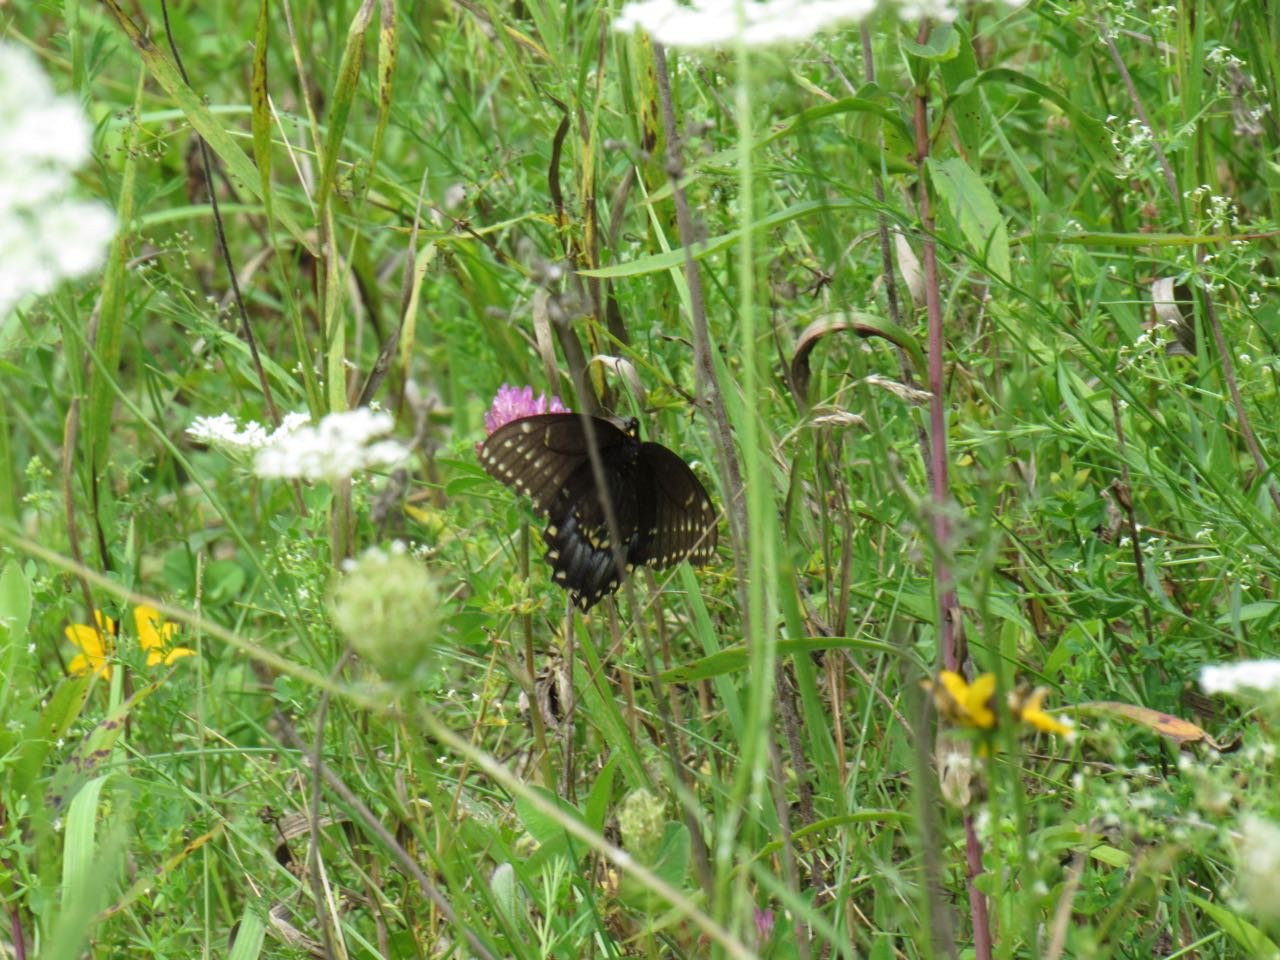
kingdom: Animalia
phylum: Arthropoda
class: Insecta
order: Lepidoptera
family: Papilionidae
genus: Papilio
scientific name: Papilio polyxenes
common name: Black Swallowtail
